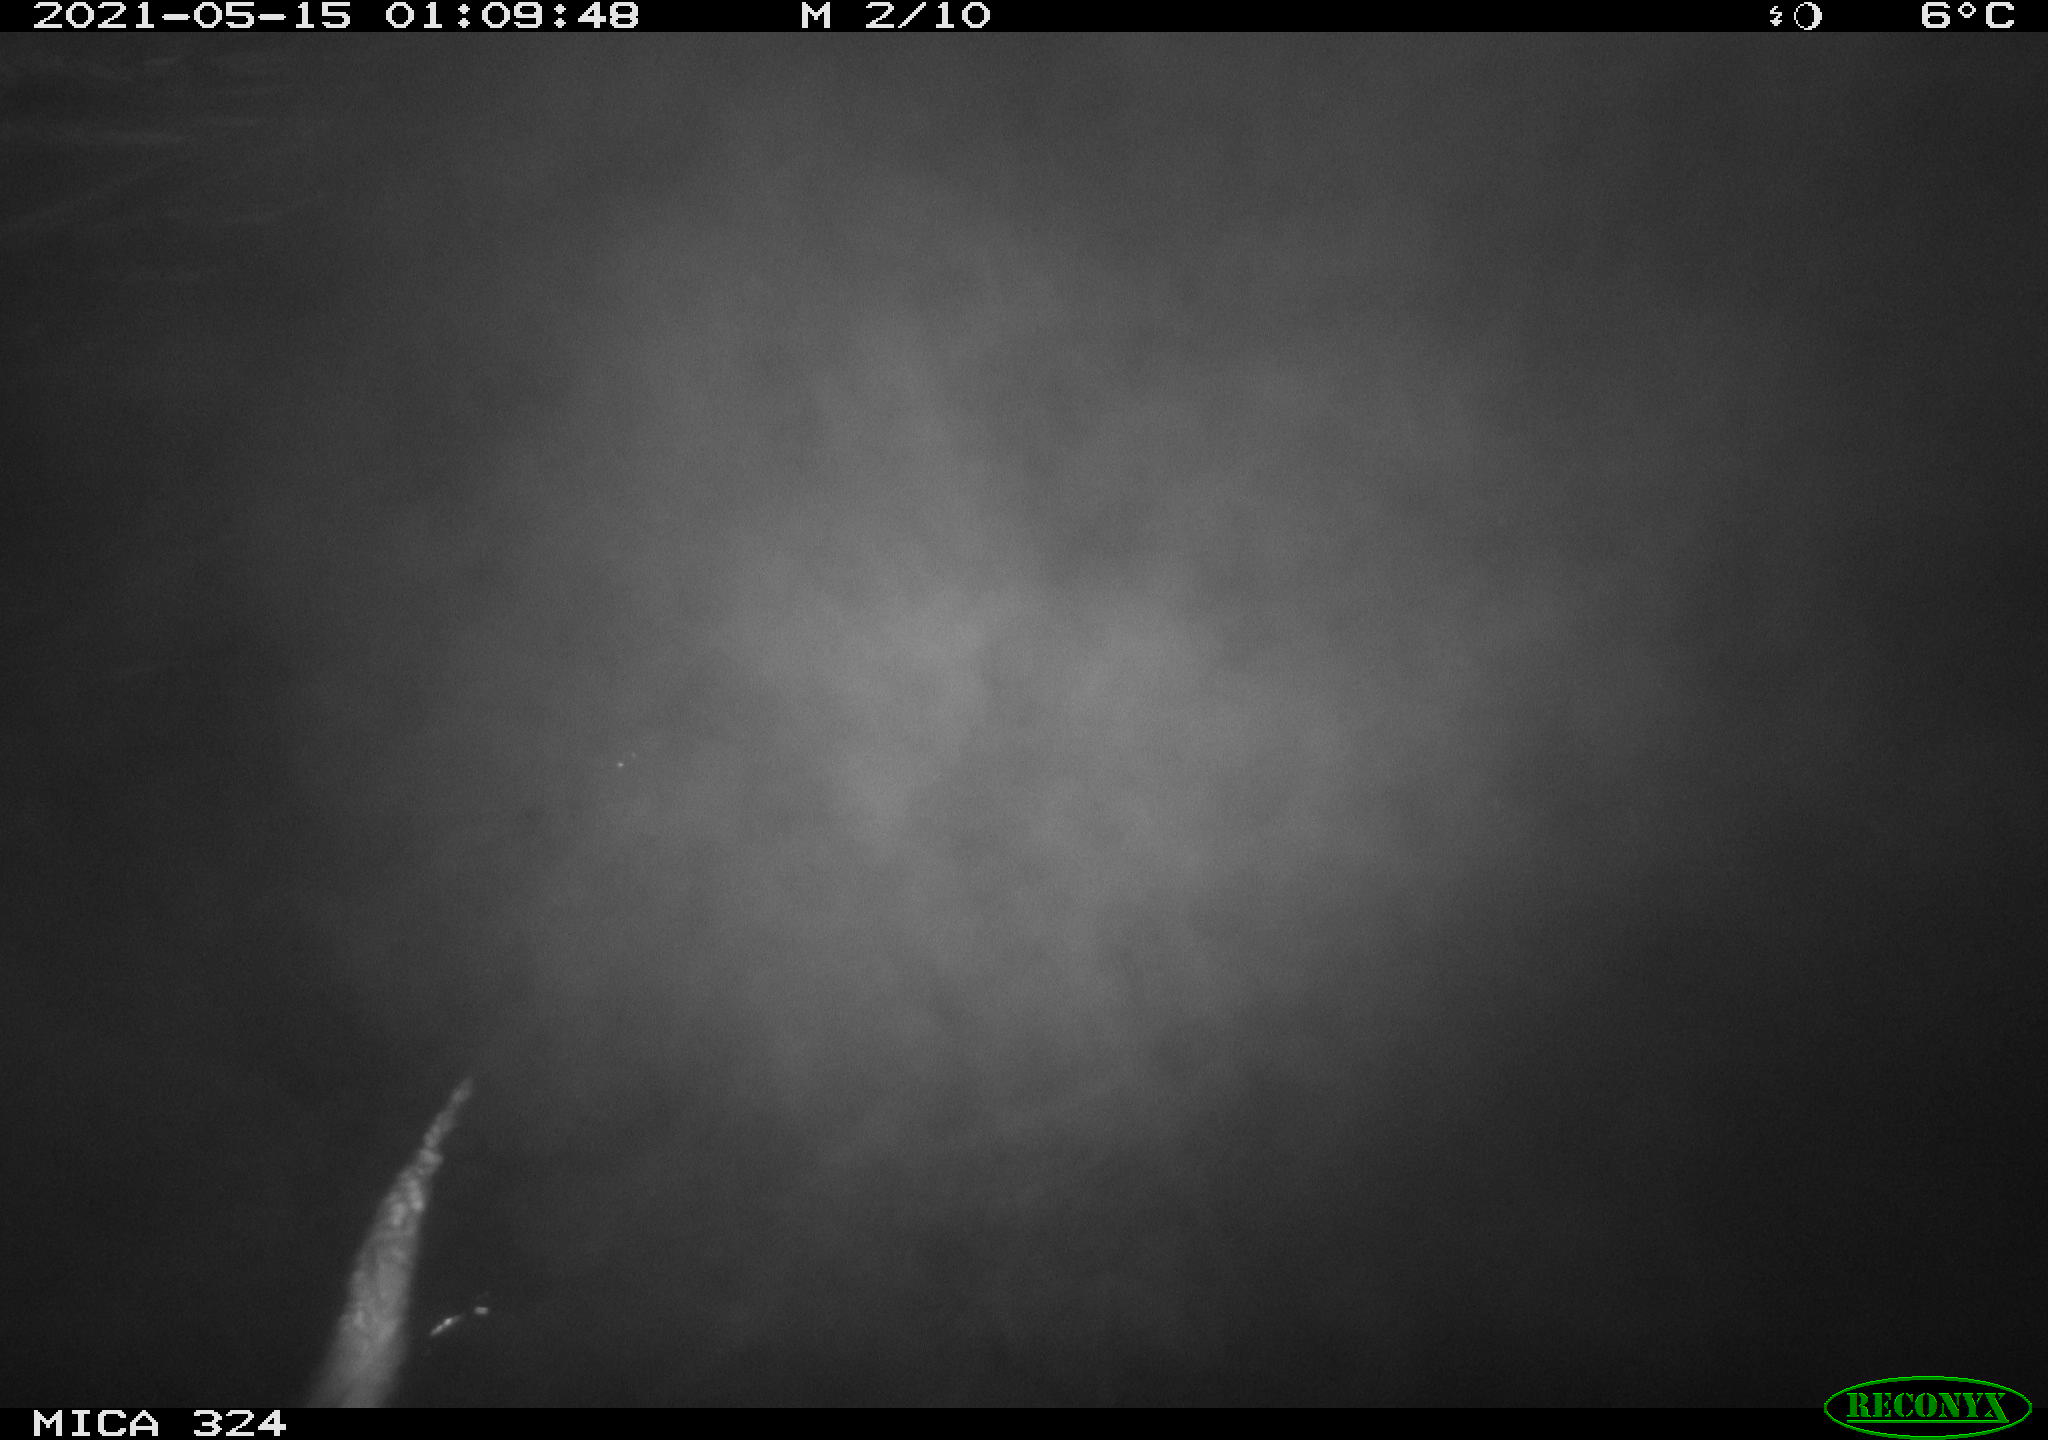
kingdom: Animalia
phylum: Chordata
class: Mammalia
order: Rodentia
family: Myocastoridae
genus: Myocastor
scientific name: Myocastor coypus
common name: Coypu
